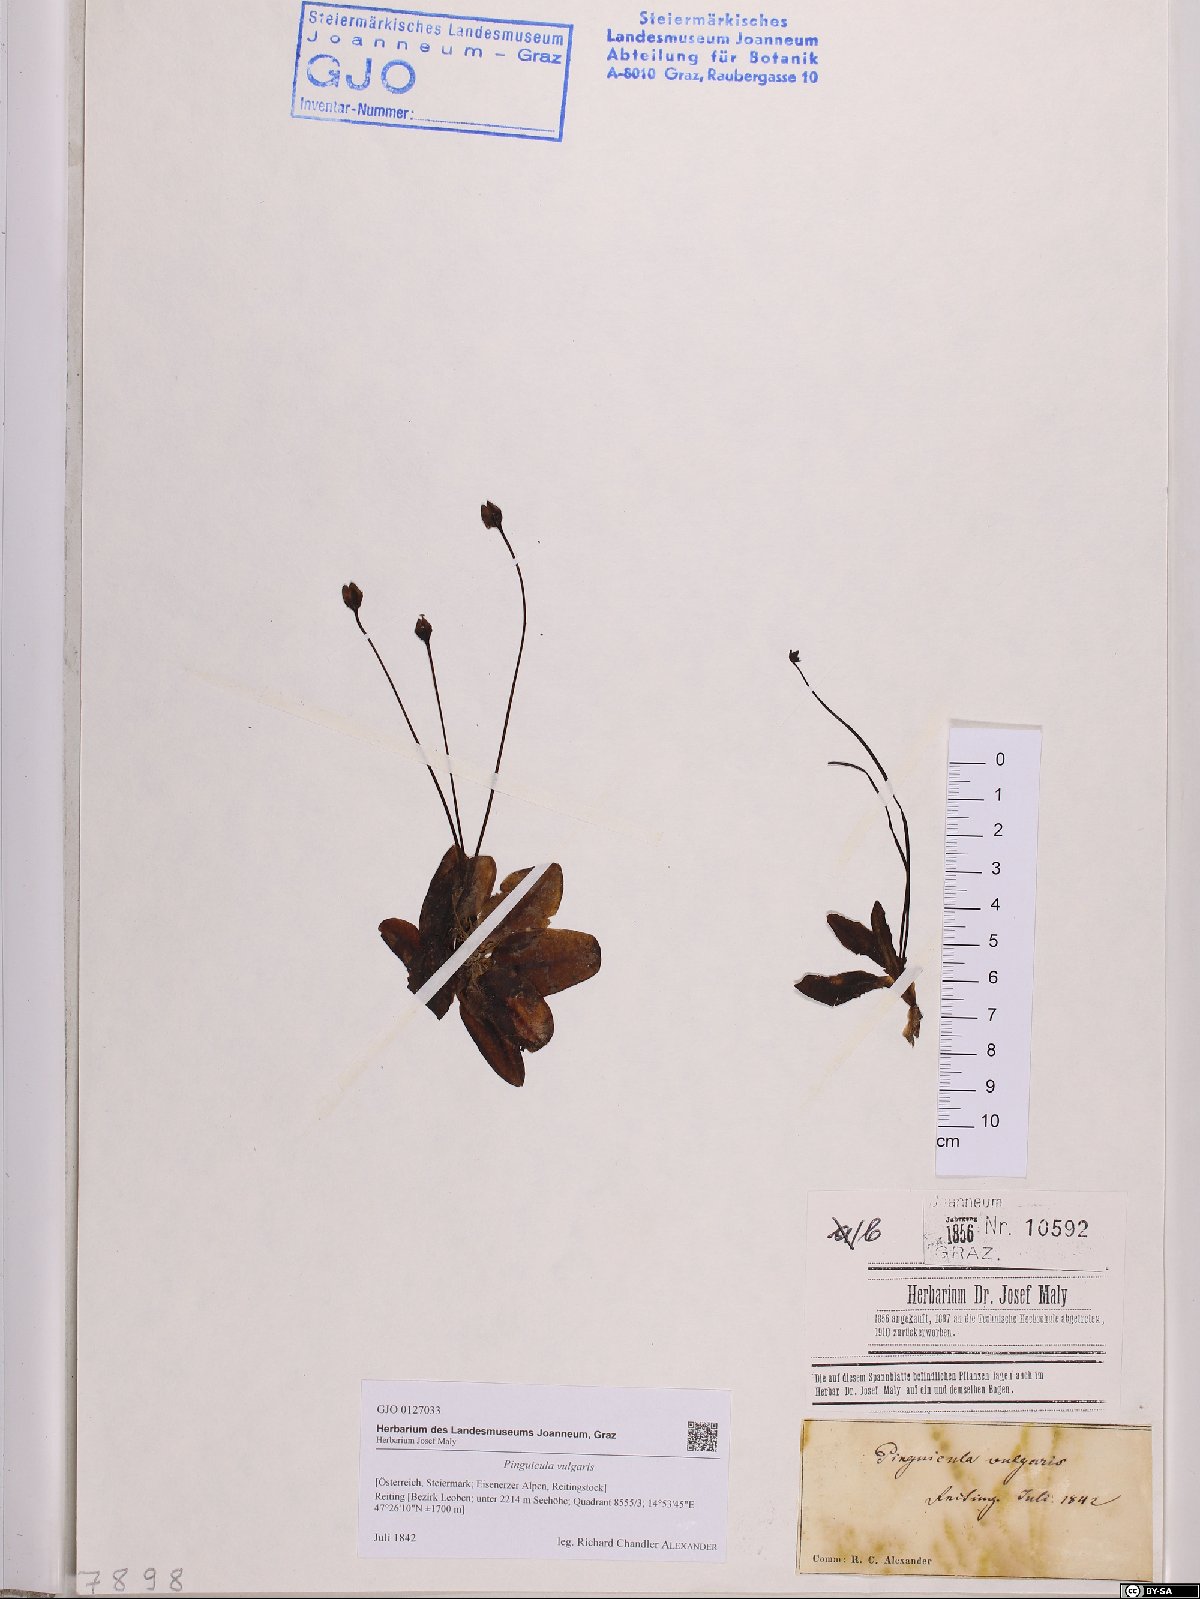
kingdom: Plantae
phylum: Tracheophyta
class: Magnoliopsida
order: Lamiales
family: Lentibulariaceae
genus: Pinguicula
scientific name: Pinguicula vulgaris
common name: Common butterwort
